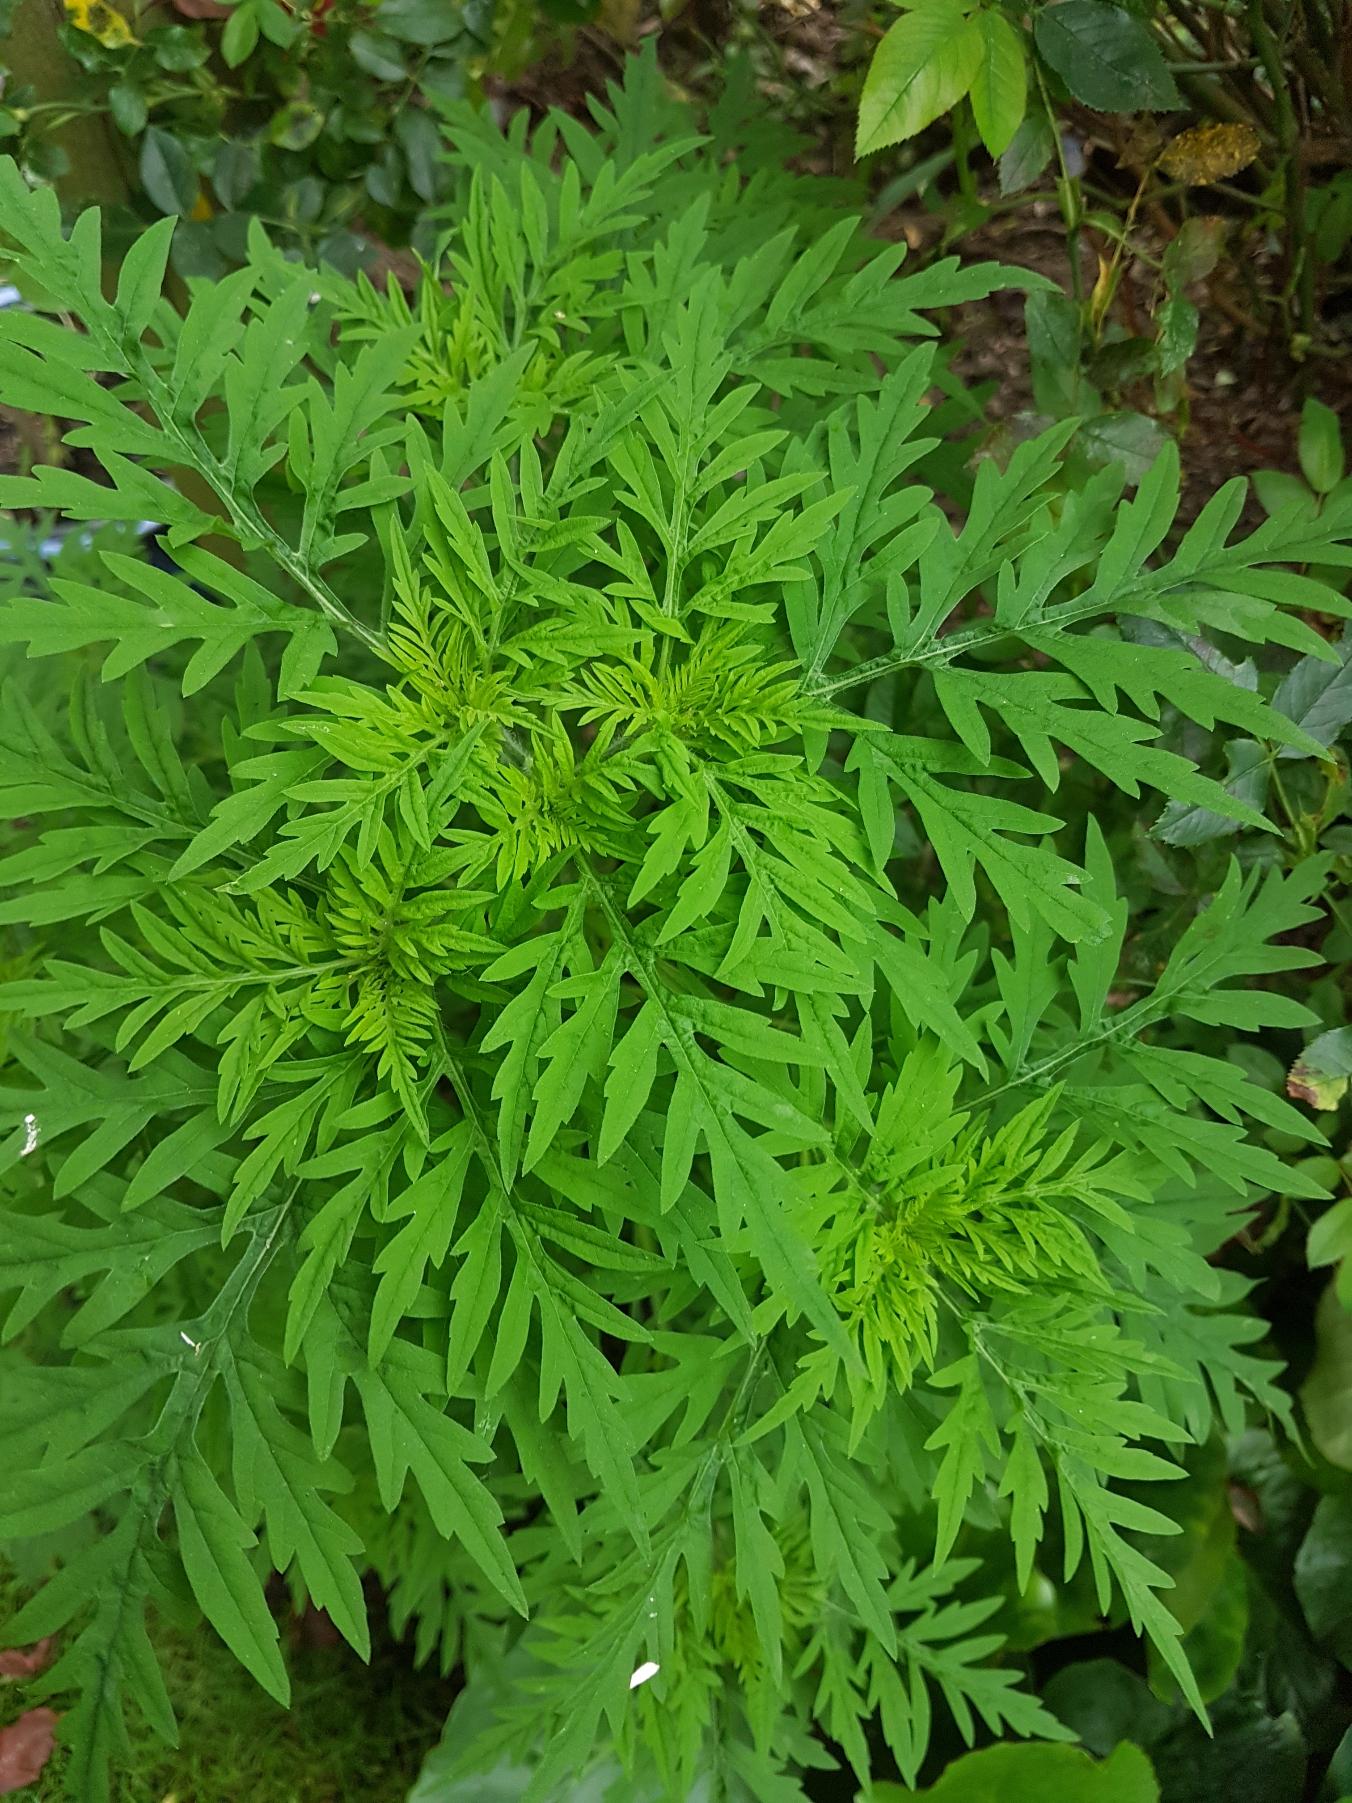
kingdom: Plantae
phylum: Tracheophyta
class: Magnoliopsida
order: Asterales
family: Asteraceae
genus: Ambrosia
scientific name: Ambrosia artemisiifolia
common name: Bynke-ambrosie
